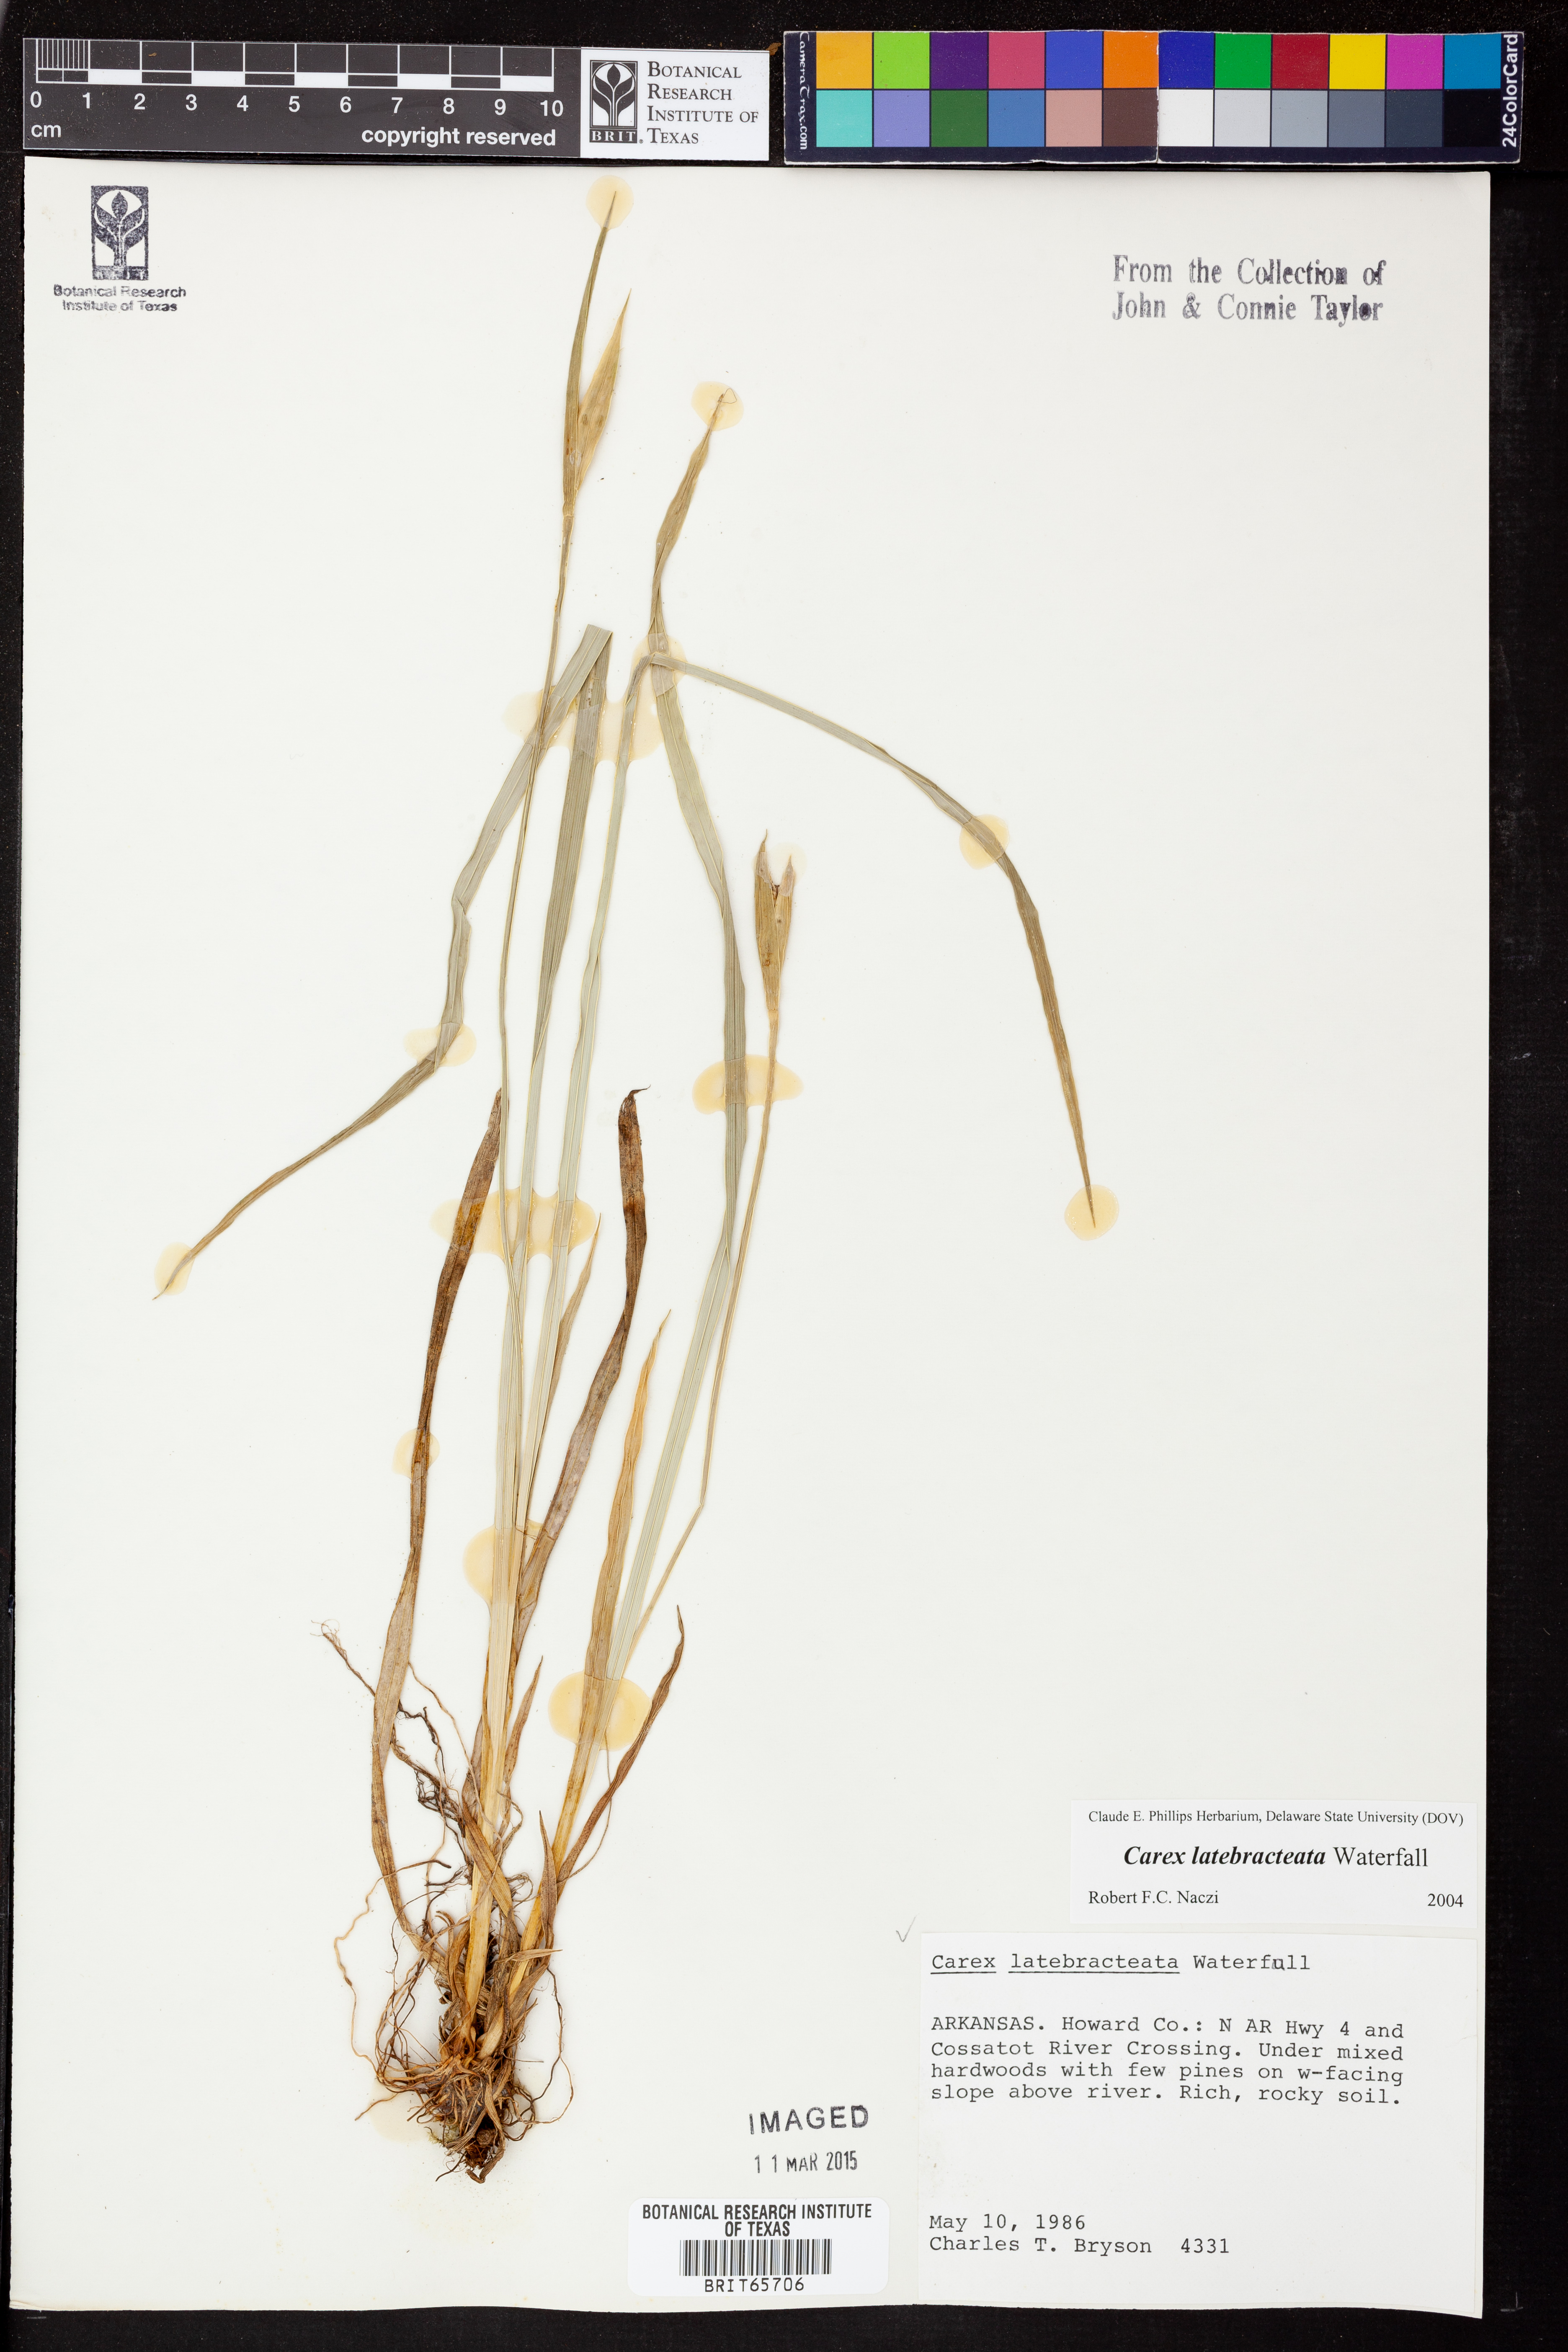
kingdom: Plantae
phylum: Tracheophyta
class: Liliopsida
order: Poales
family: Cyperaceae
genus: Carex
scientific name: Carex latebracteata
